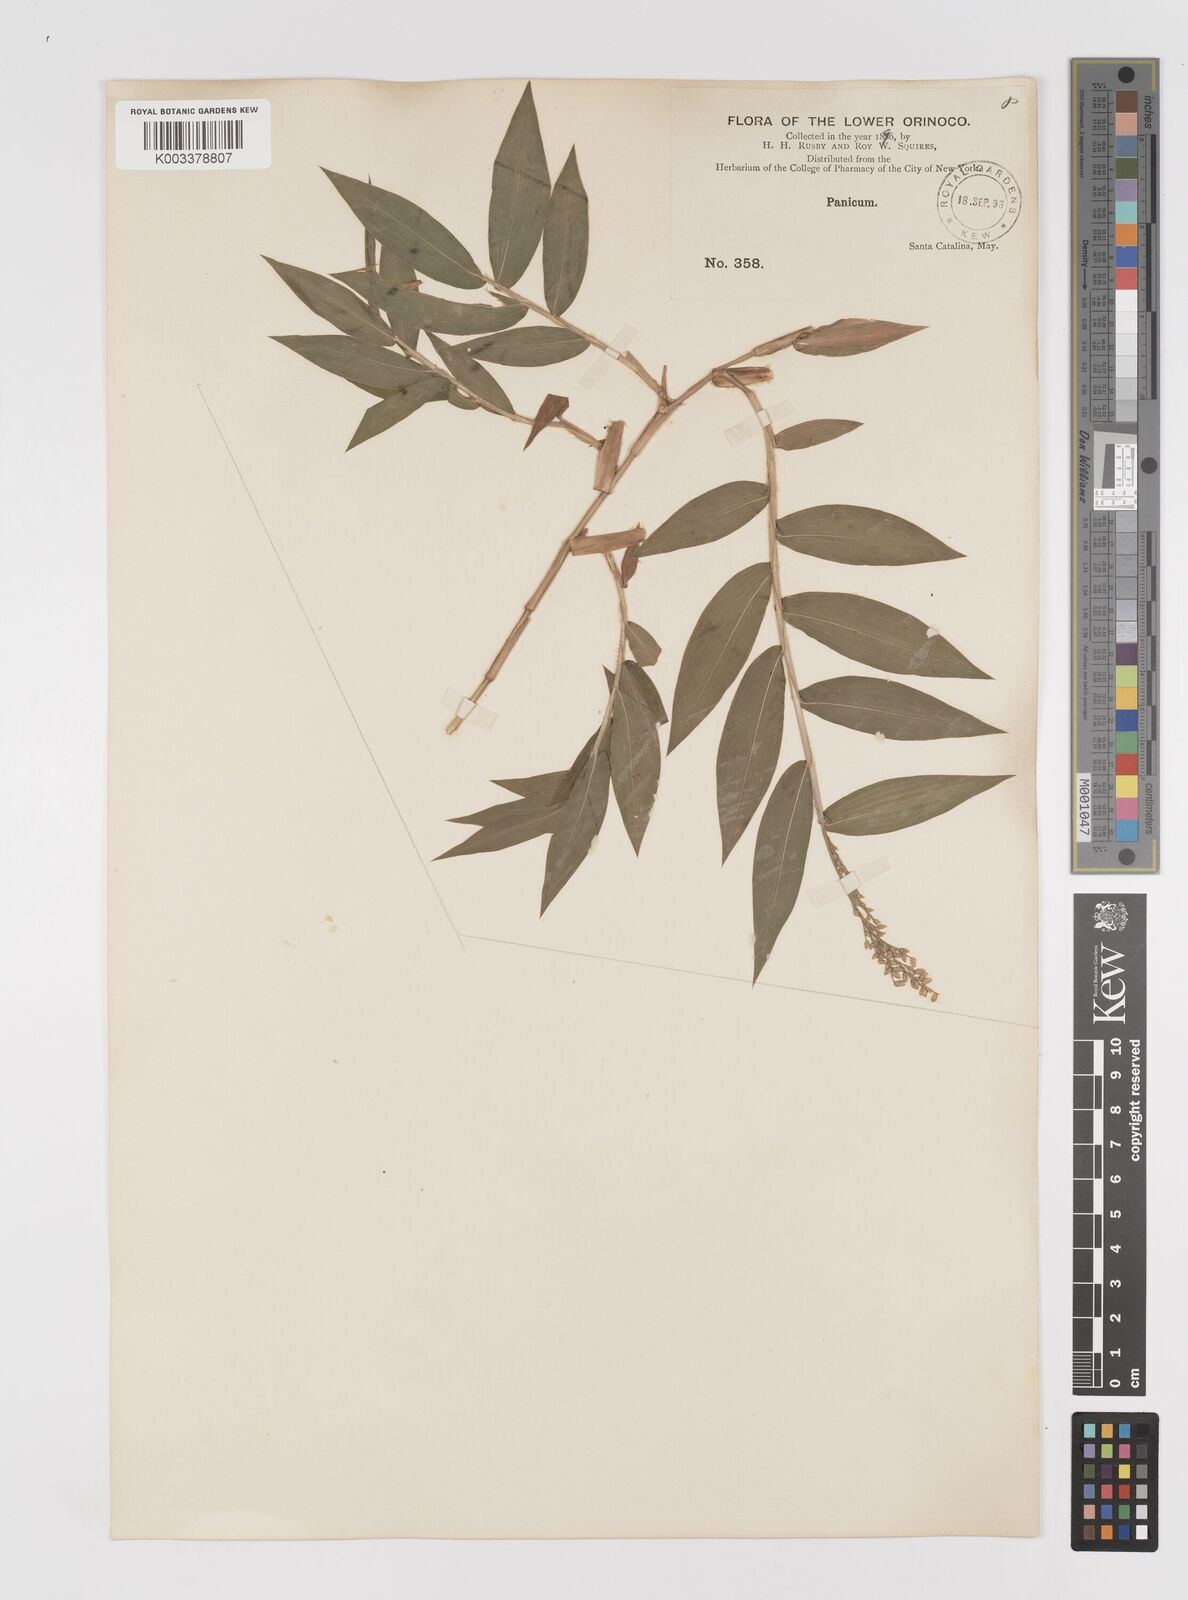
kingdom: Plantae
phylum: Tracheophyta
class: Liliopsida
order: Poales
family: Poaceae
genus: Lasiacis
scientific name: Lasiacis
